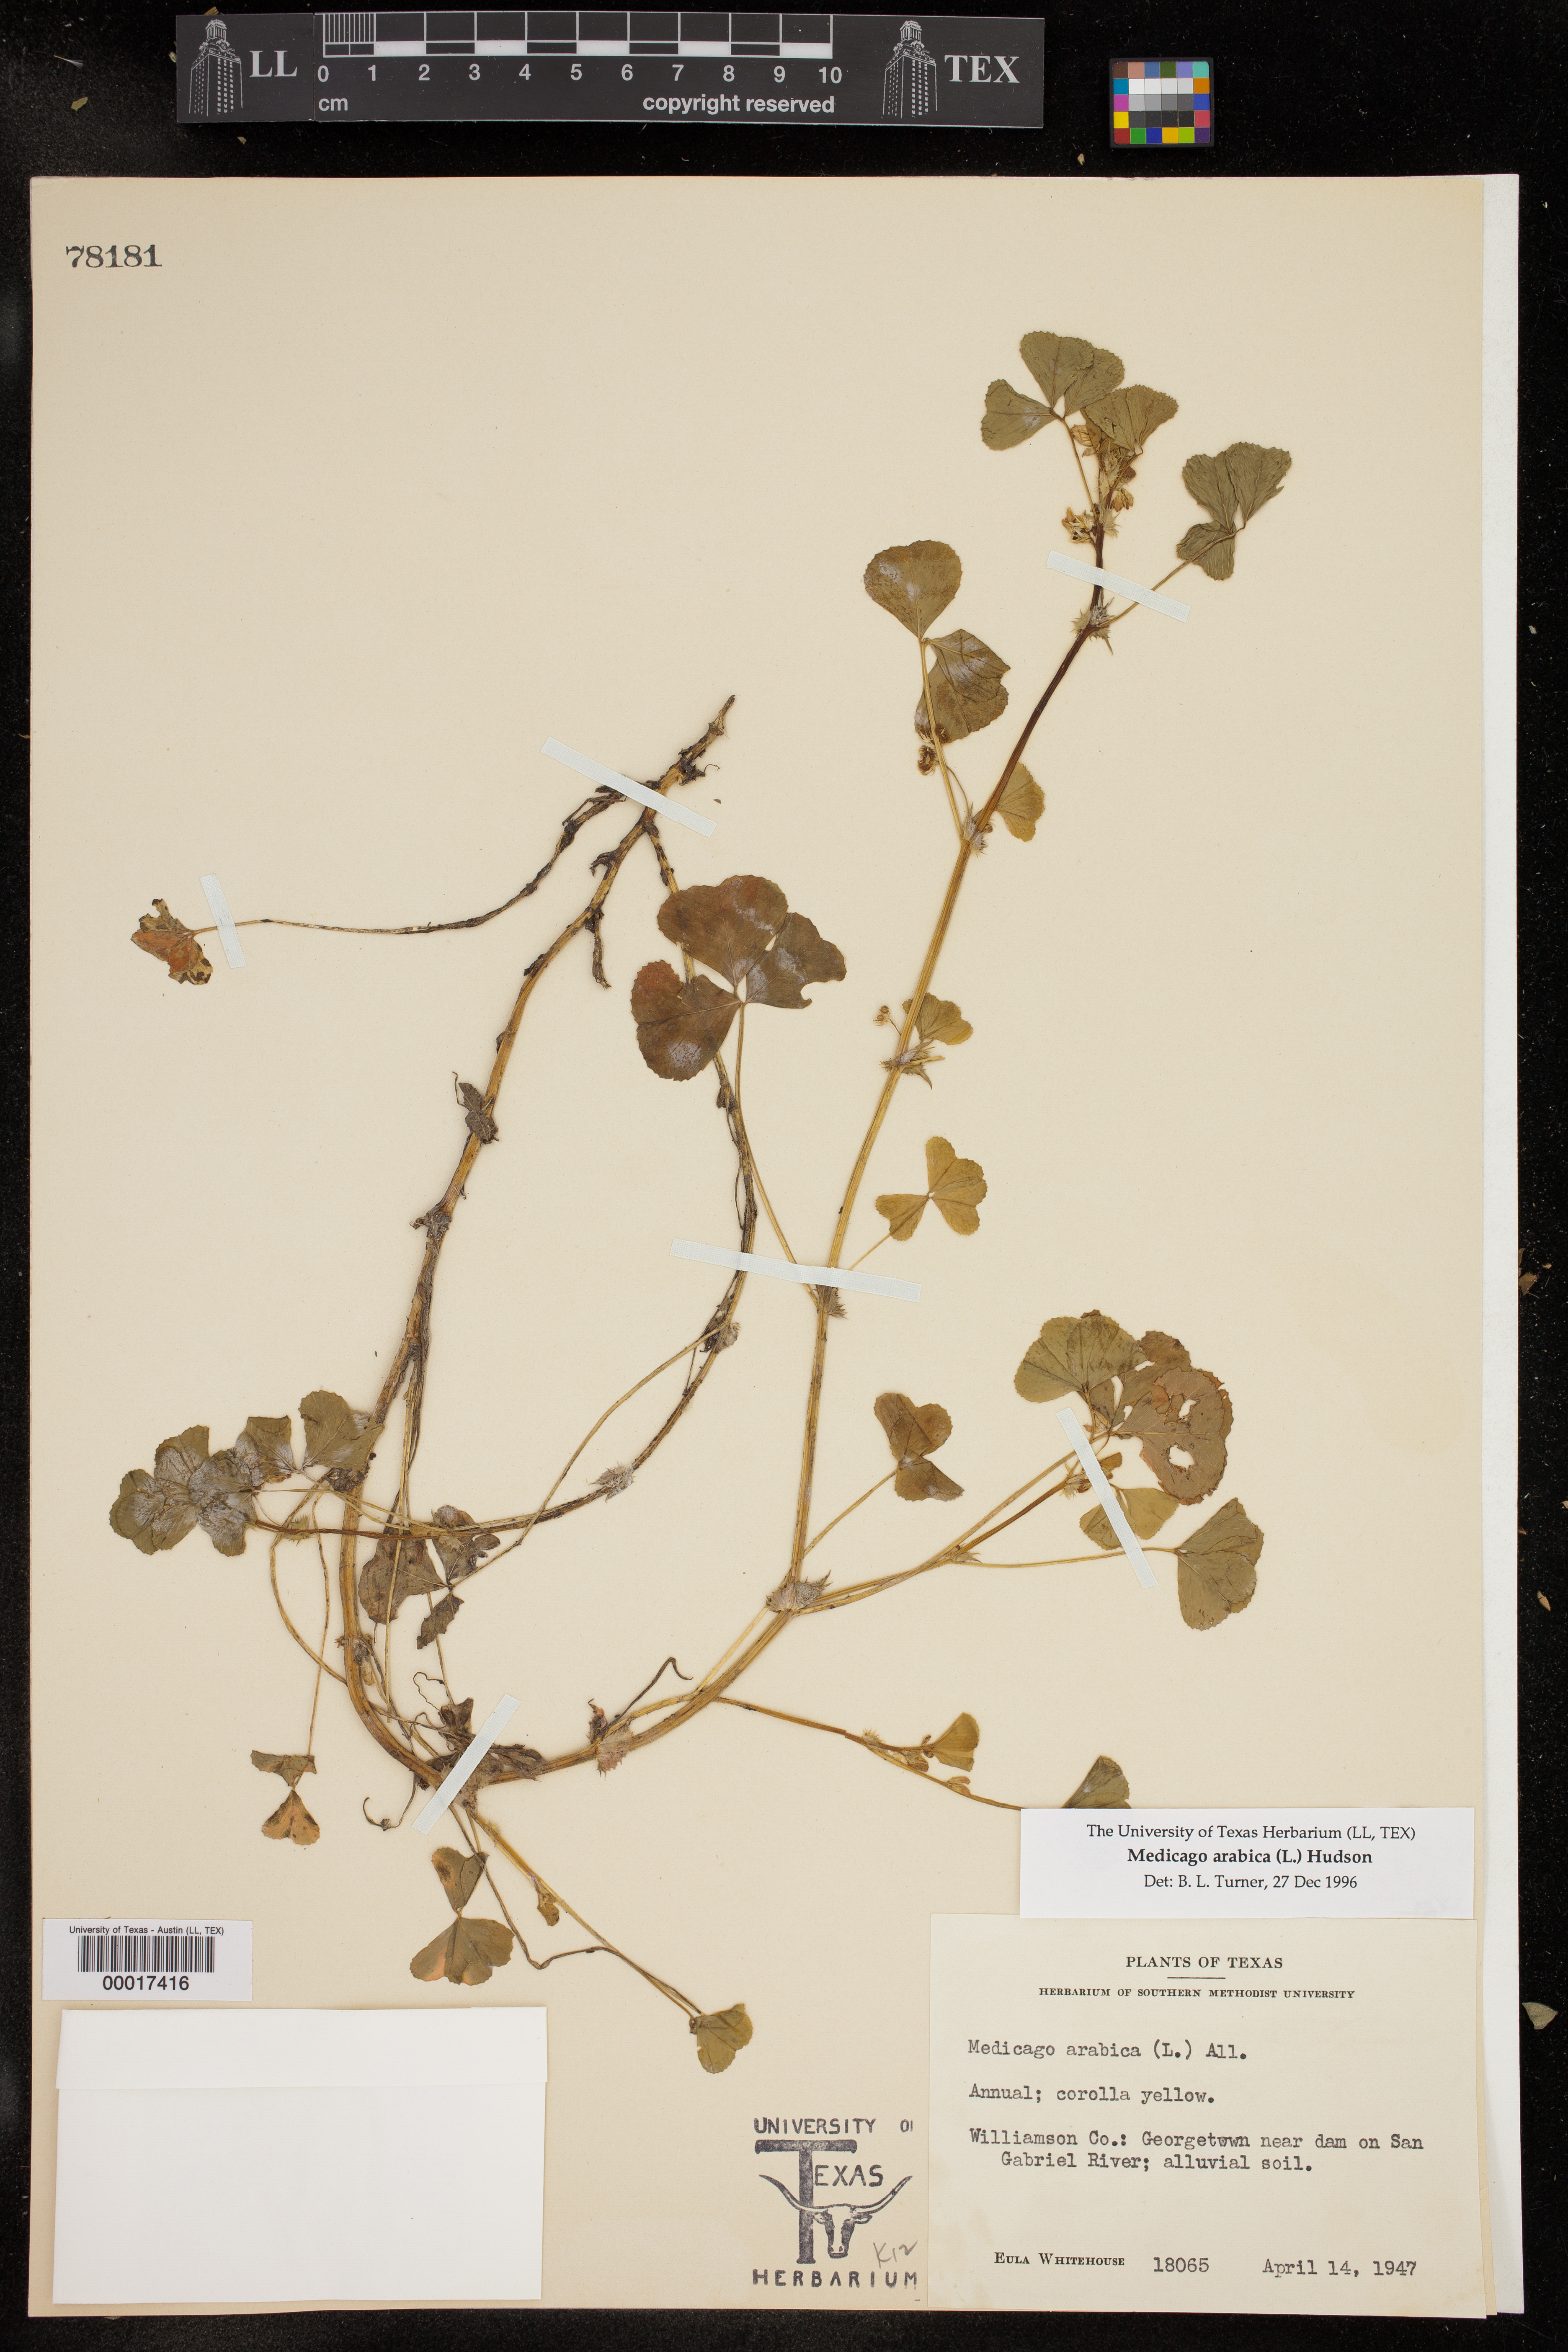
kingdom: Plantae
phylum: Tracheophyta
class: Magnoliopsida
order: Fabales
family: Fabaceae
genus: Medicago
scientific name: Medicago arabica
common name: Spotted medick
